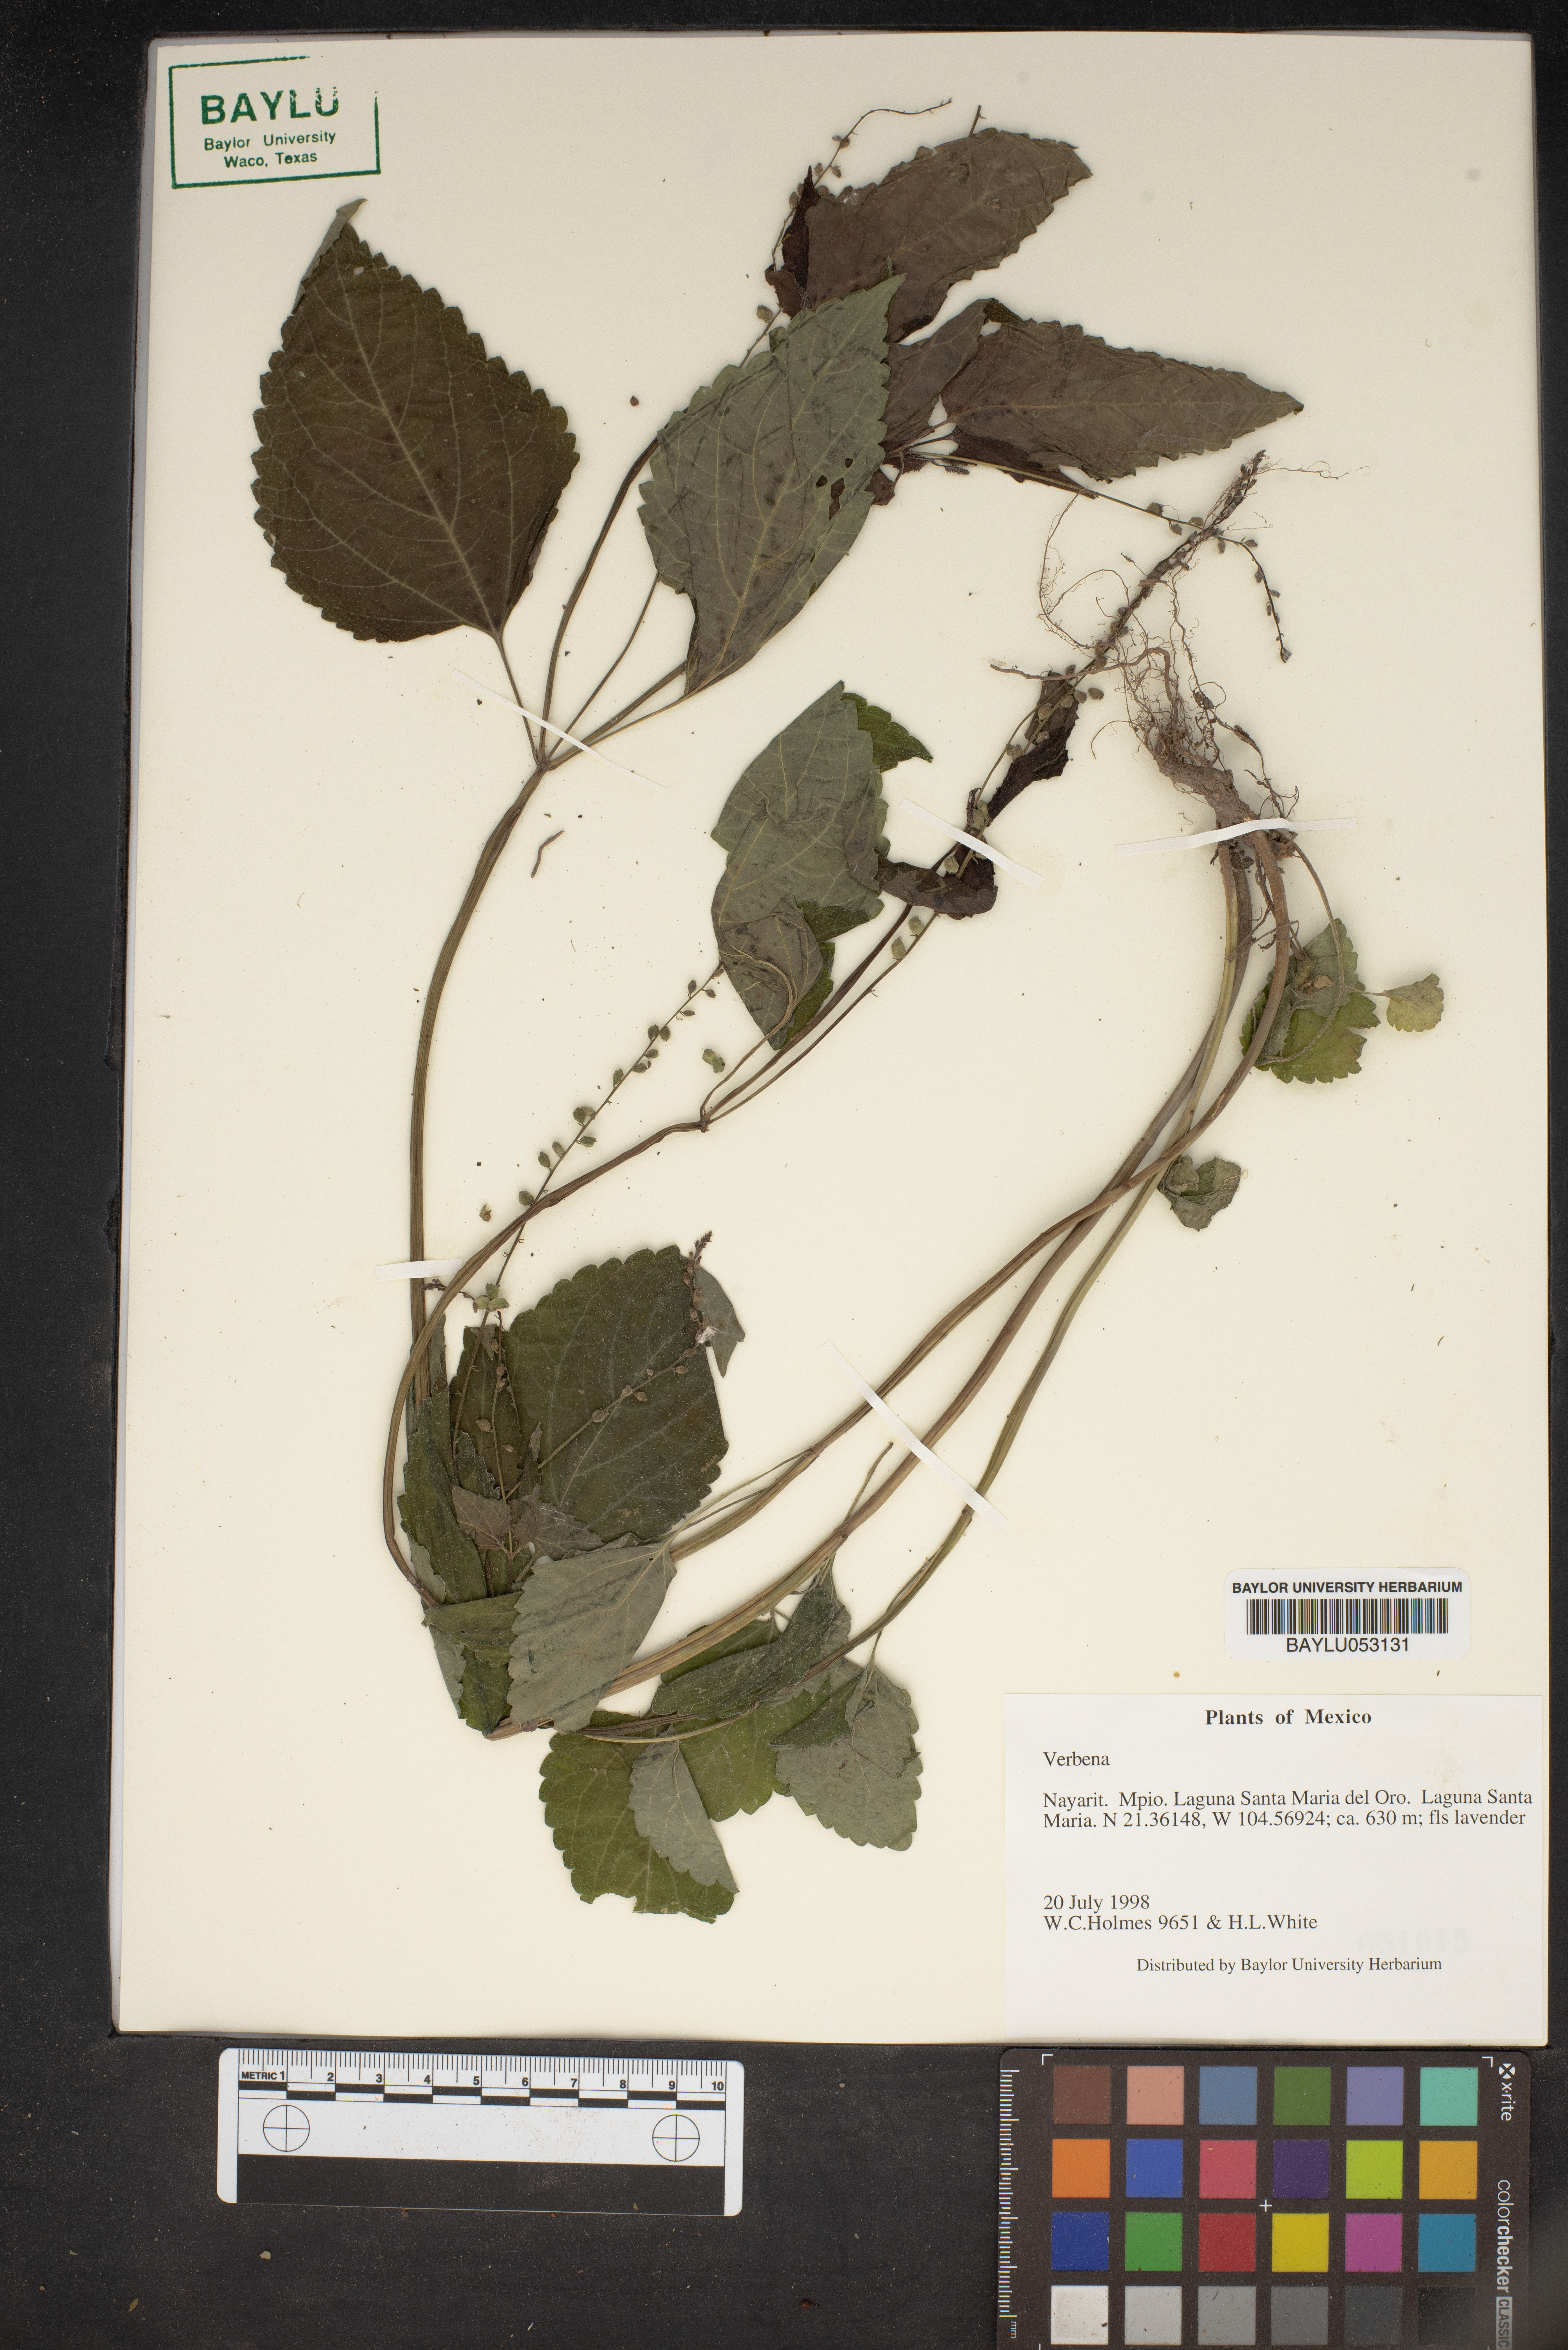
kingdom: Plantae
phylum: Tracheophyta
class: Magnoliopsida
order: Lamiales
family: Verbenaceae
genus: Verbena
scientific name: Verbena
